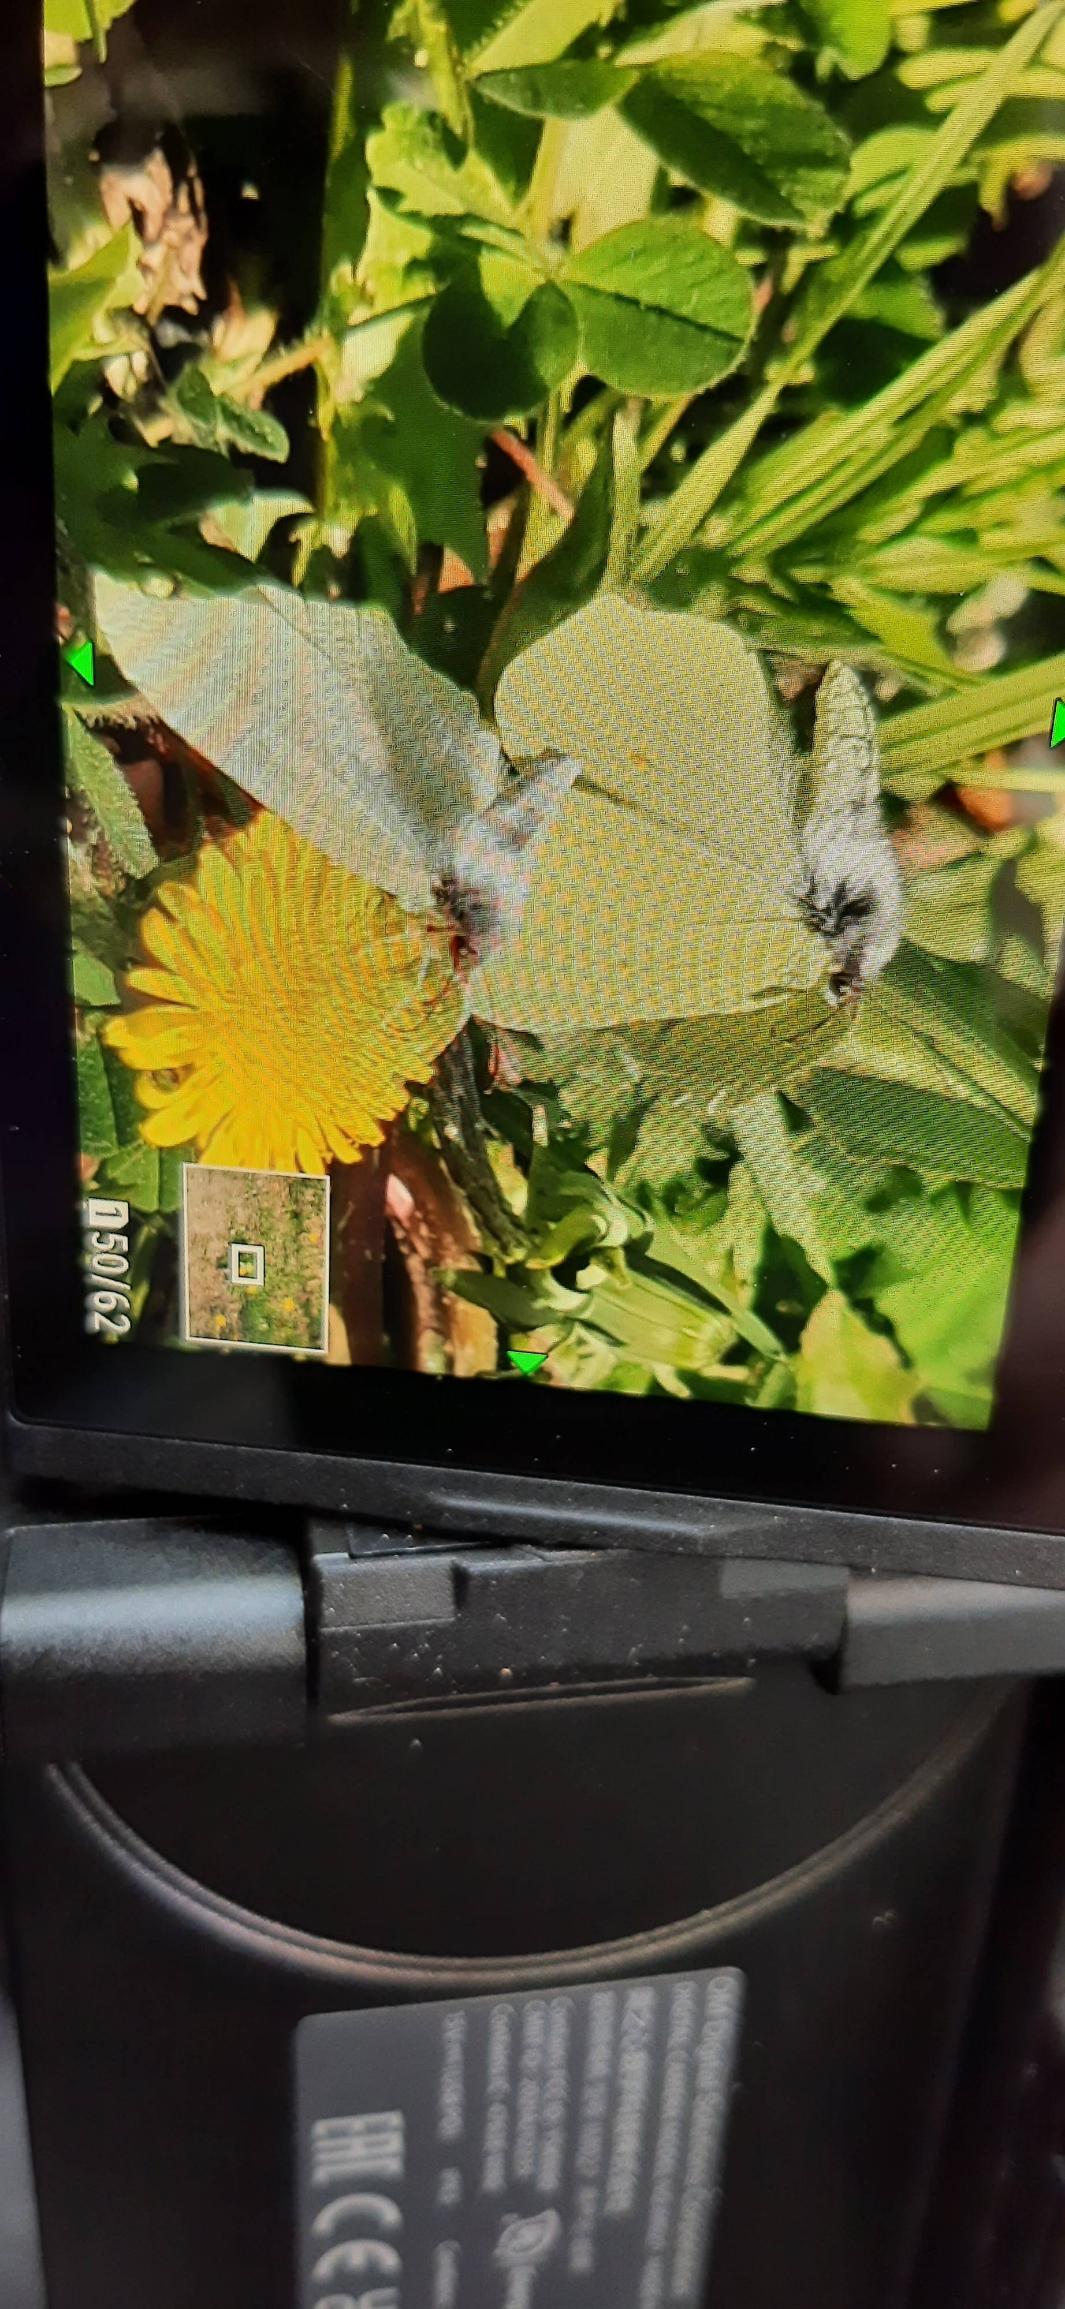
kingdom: Animalia
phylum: Arthropoda
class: Insecta
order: Lepidoptera
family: Pieridae
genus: Gonepteryx
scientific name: Gonepteryx rhamni
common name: Citronsommerfugl
